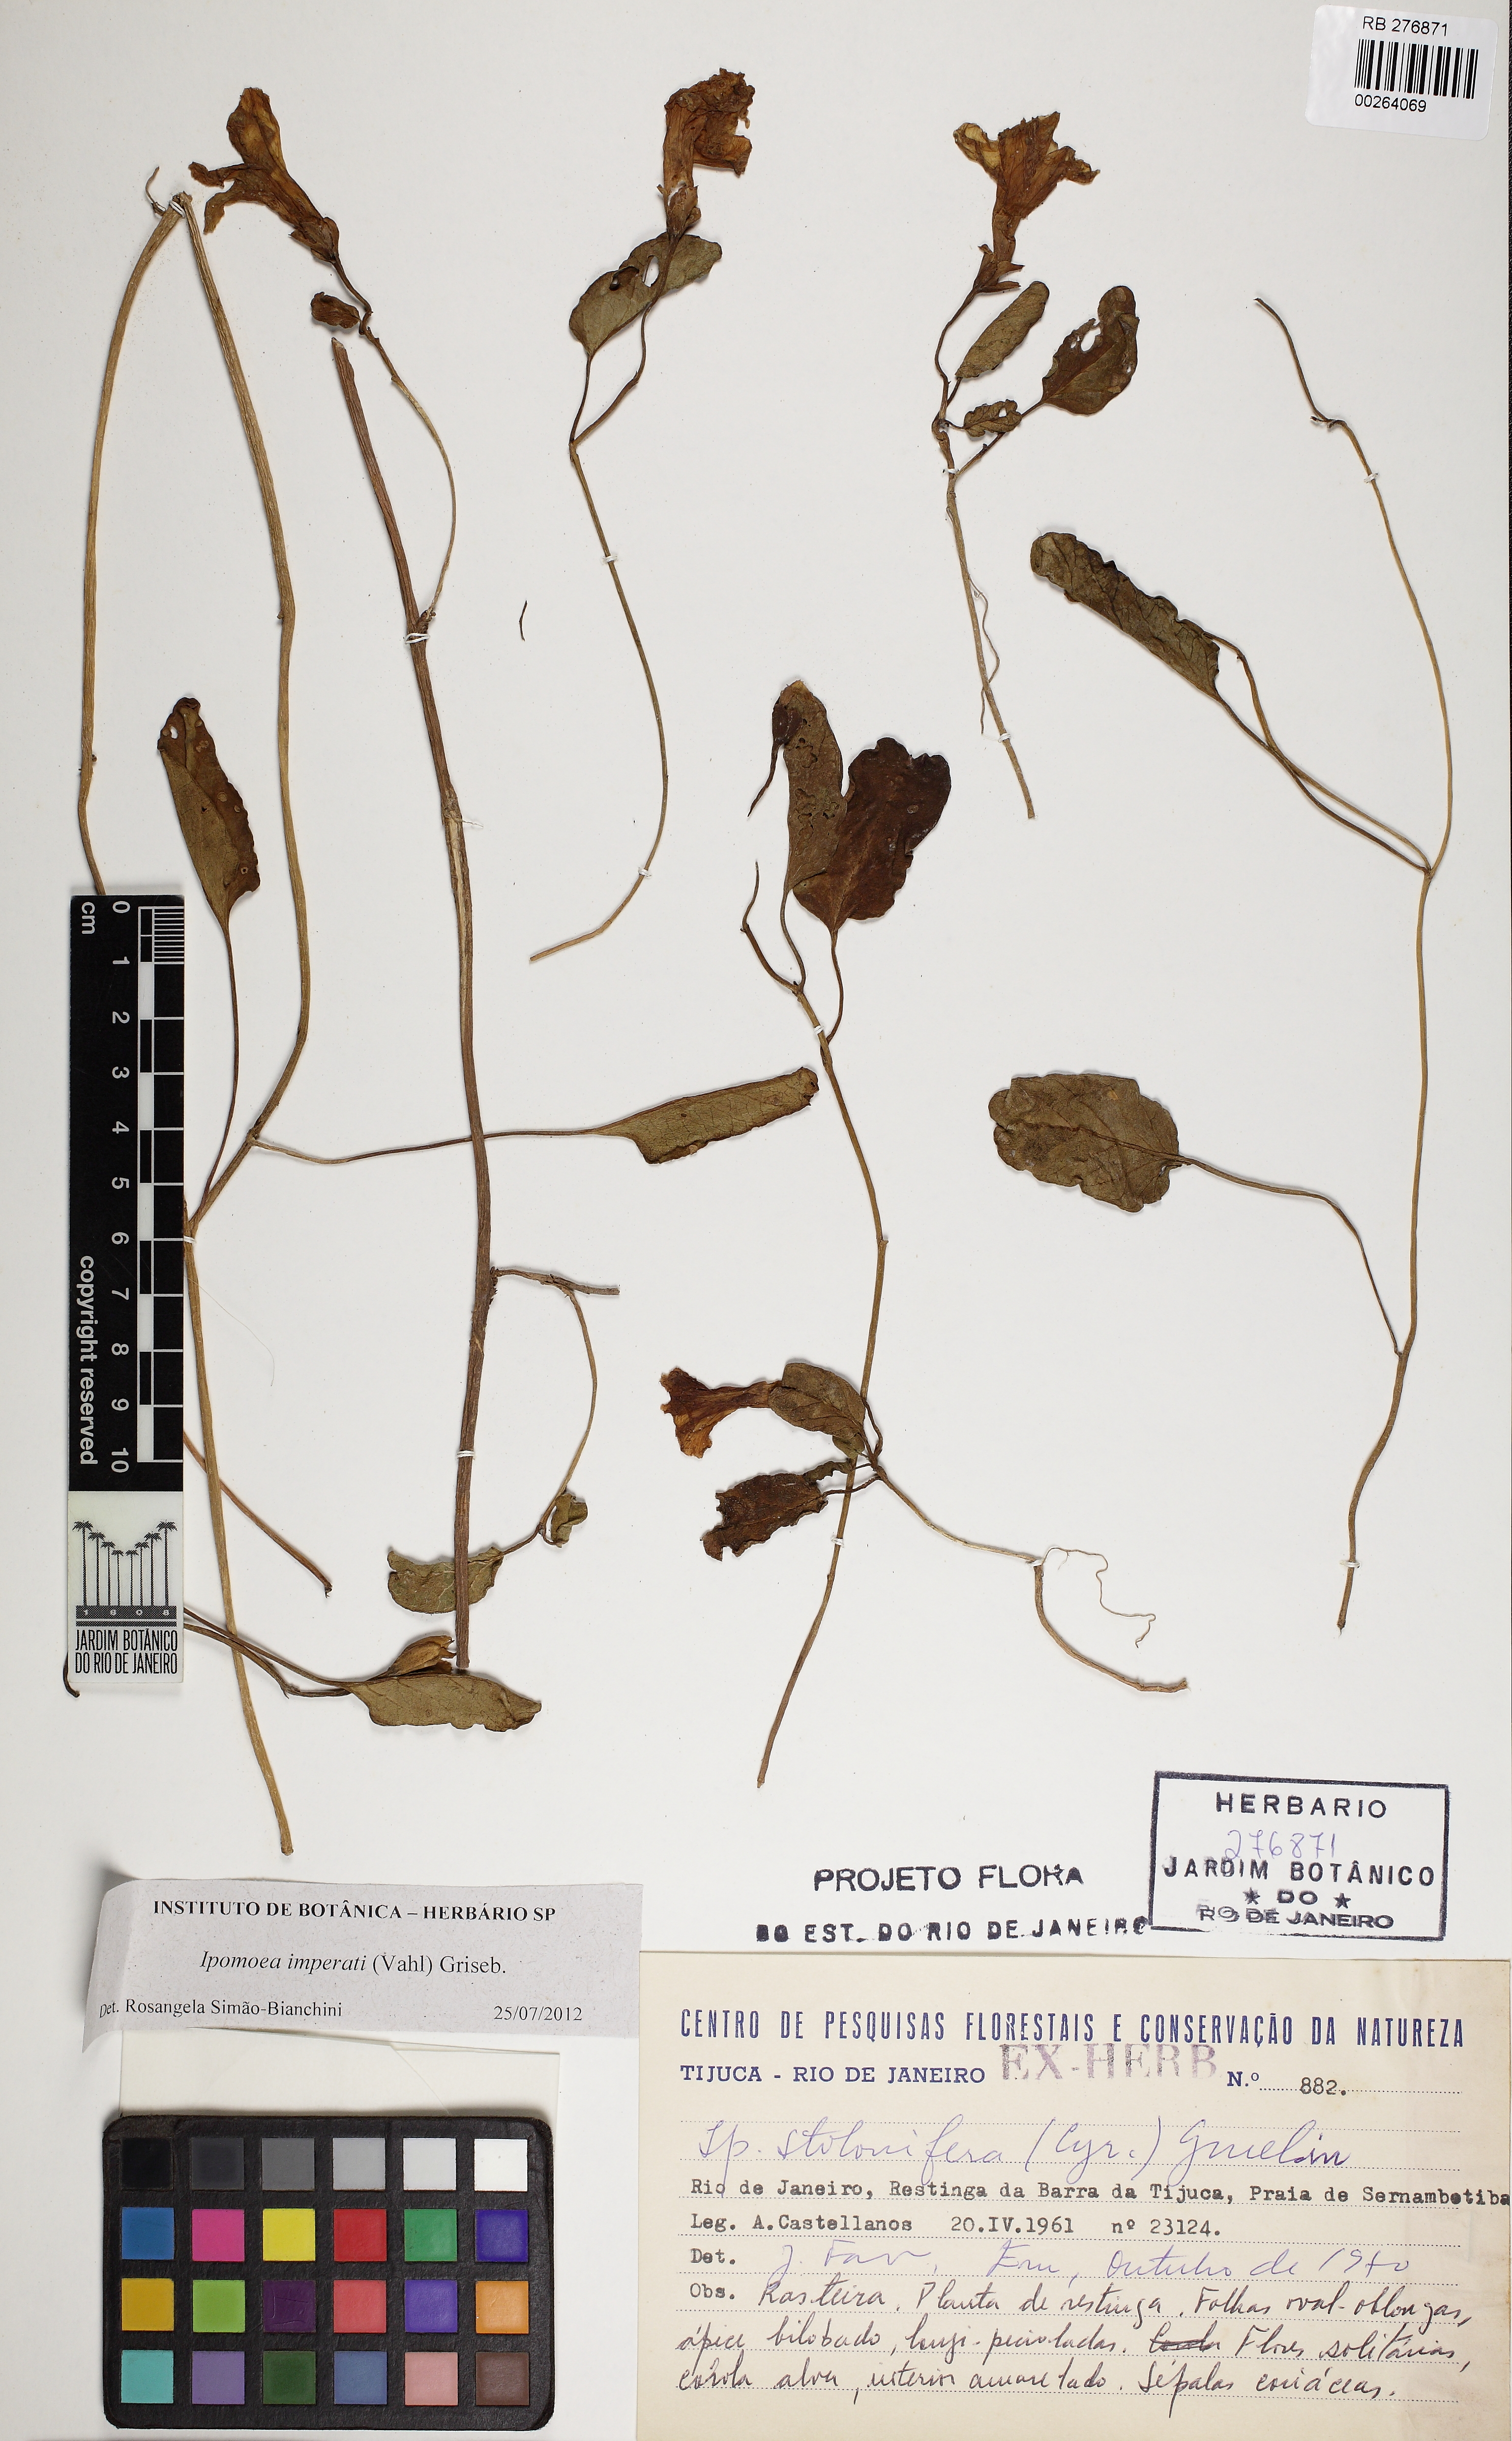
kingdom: Plantae
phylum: Tracheophyta
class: Magnoliopsida
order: Solanales
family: Convolvulaceae
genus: Ipomoea
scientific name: Ipomoea imperati
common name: Fiddle-leaf morning-glory
